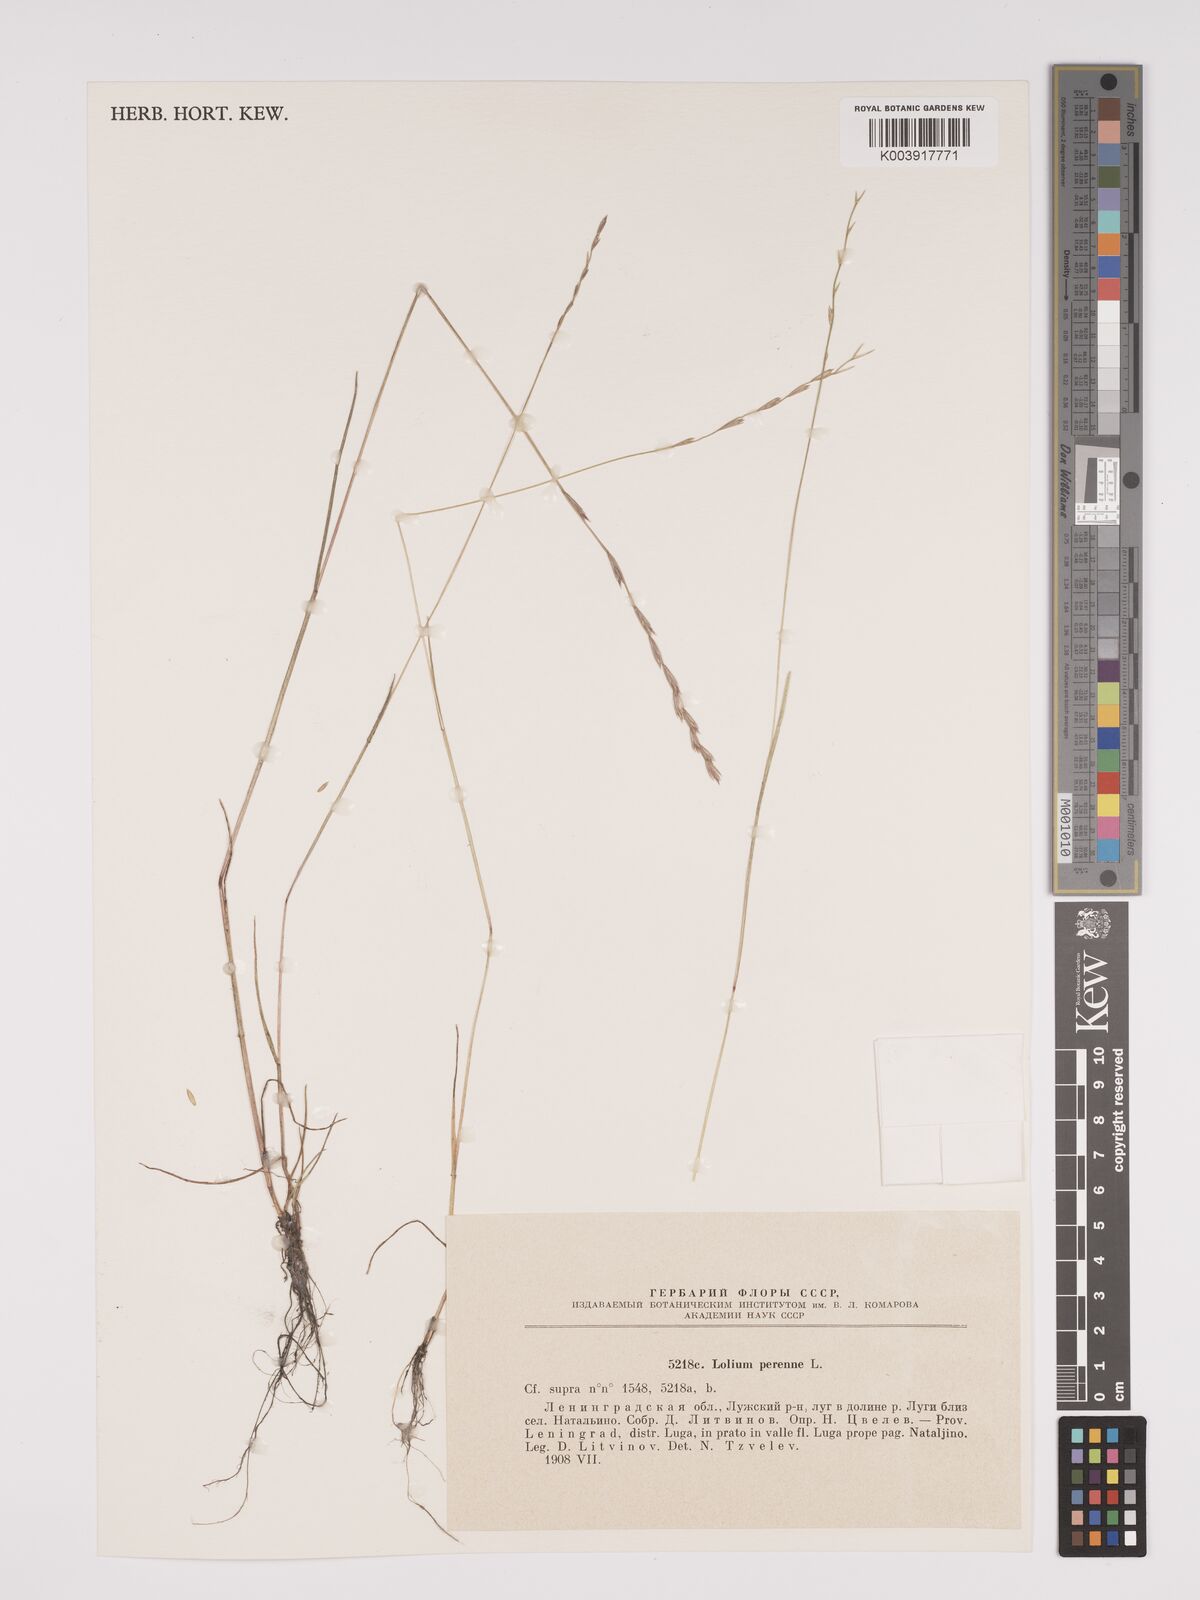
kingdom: Plantae
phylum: Tracheophyta
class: Liliopsida
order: Poales
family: Poaceae
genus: Lolium
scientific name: Lolium perenne
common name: Perennial ryegrass
